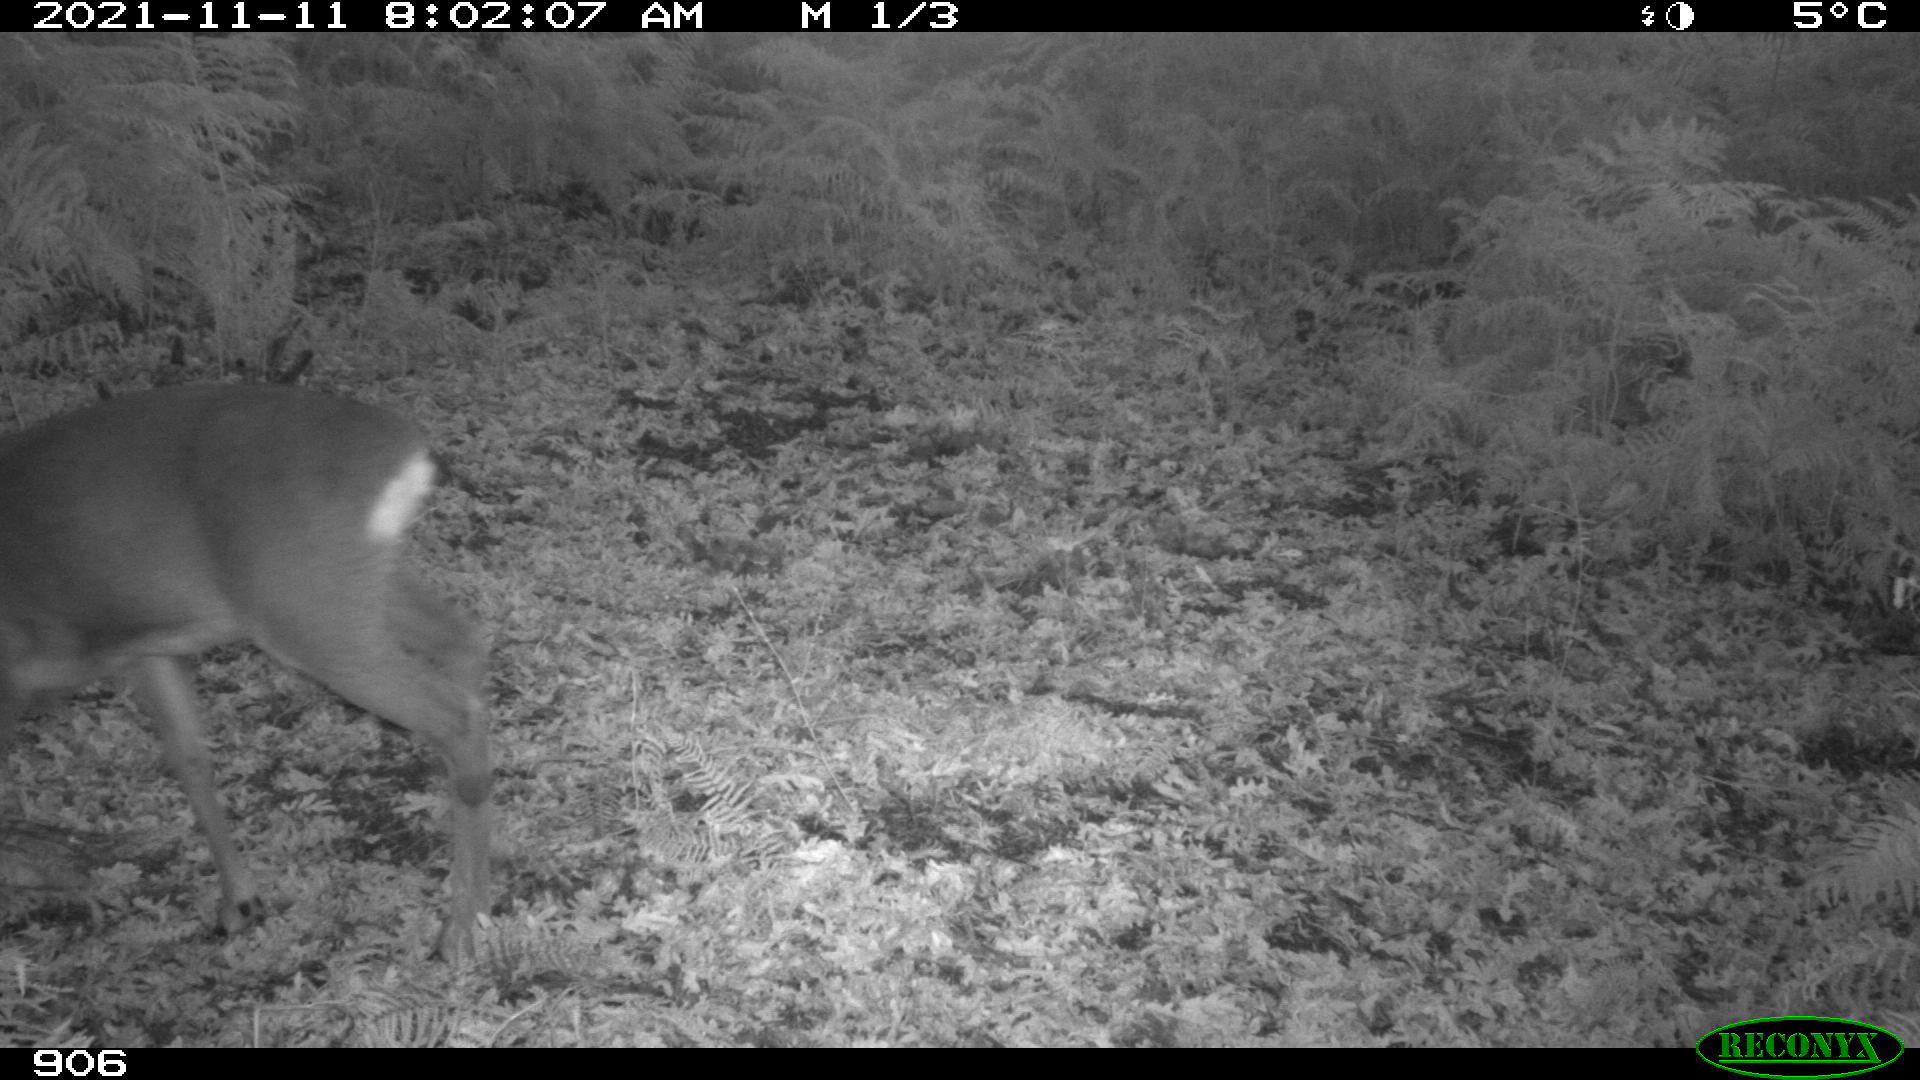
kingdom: Animalia
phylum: Chordata
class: Mammalia
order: Artiodactyla
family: Cervidae
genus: Capreolus
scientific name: Capreolus capreolus
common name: Western roe deer
